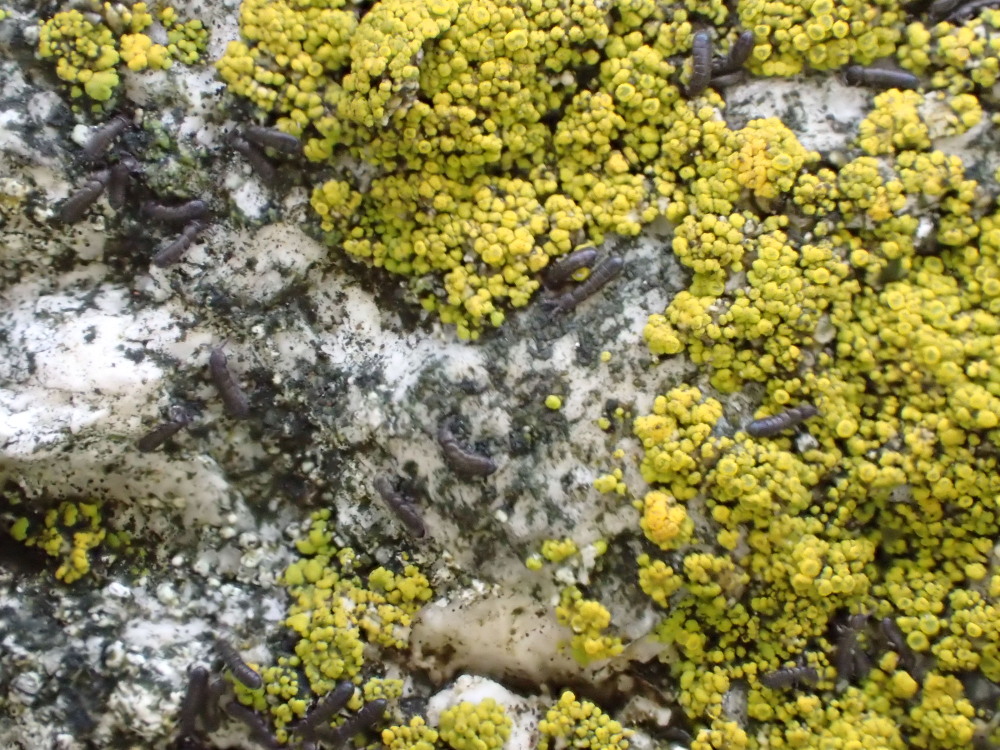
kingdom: Fungi
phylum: Ascomycota
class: Candelariomycetes
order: Candelariales
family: Candelariaceae
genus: Candelariella
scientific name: Candelariella vitellina
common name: almindelig æggeblommelav
